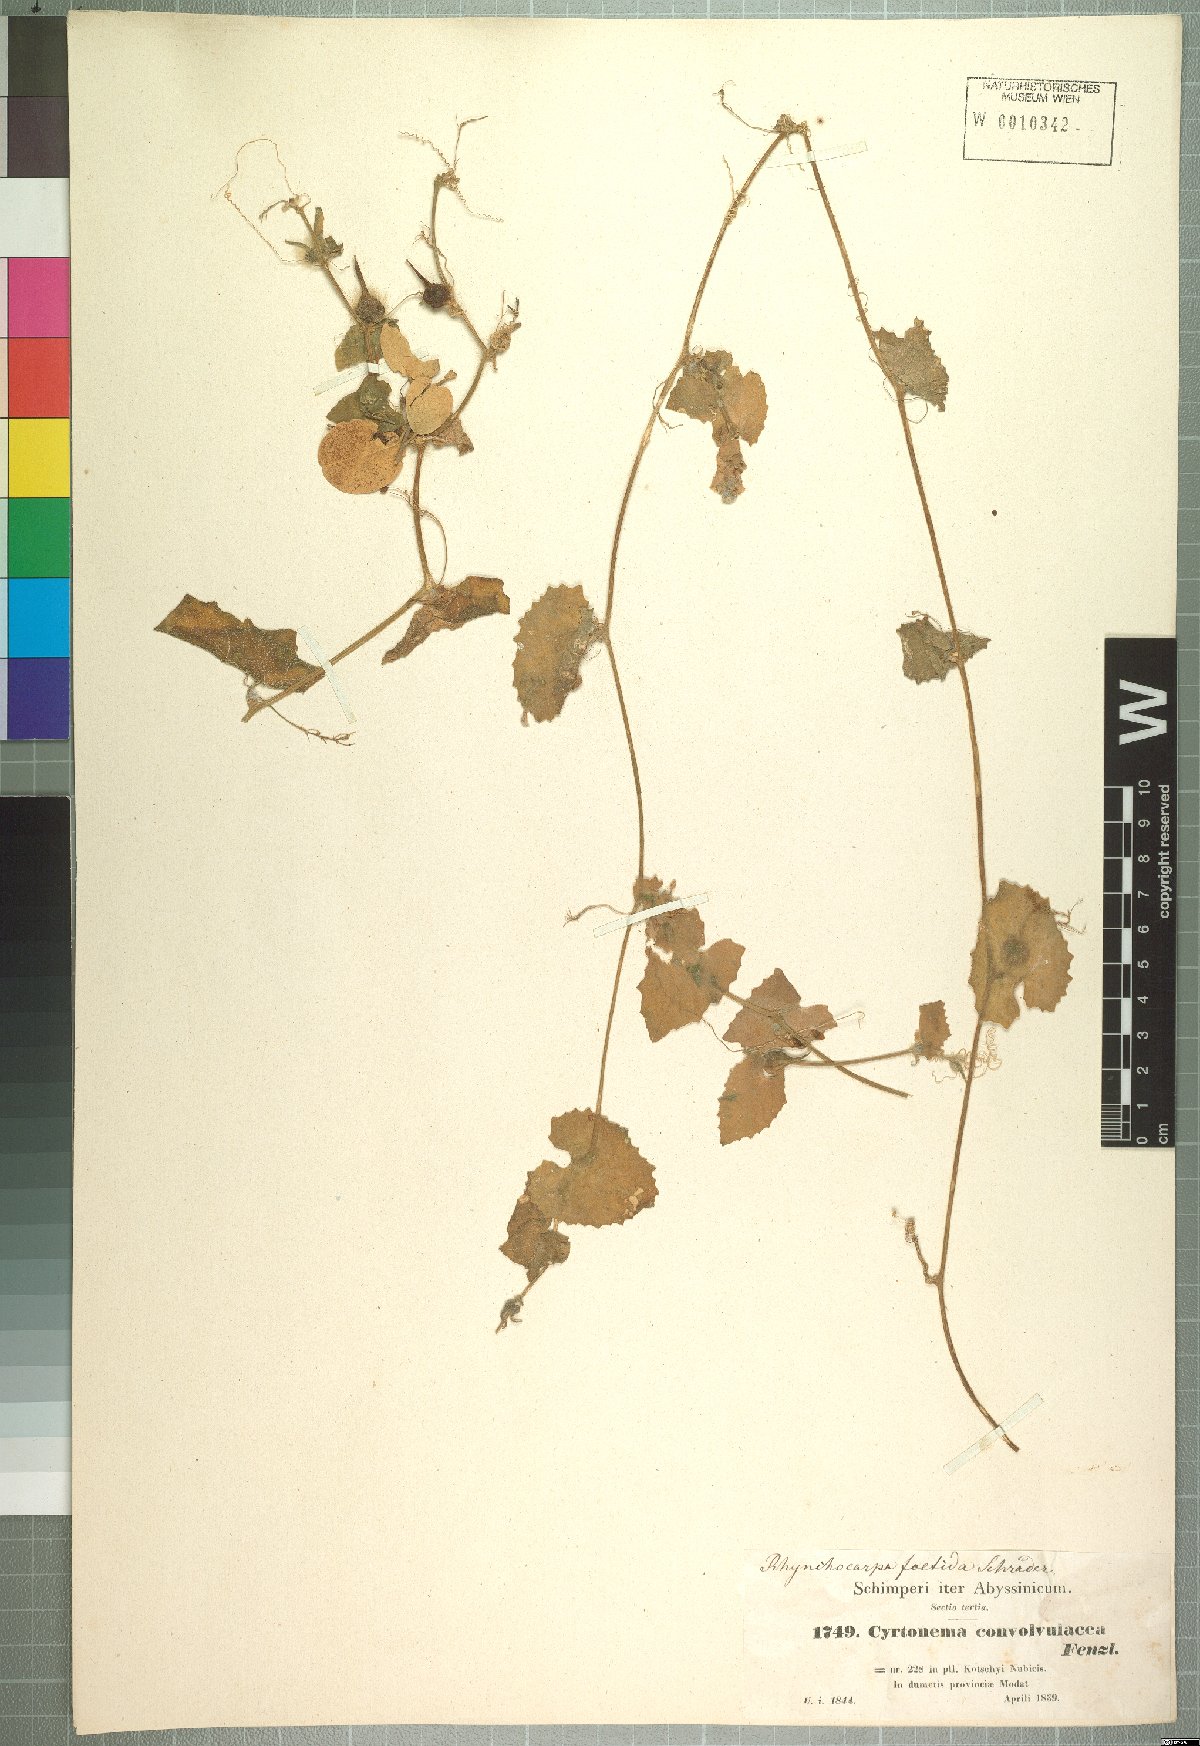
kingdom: Plantae
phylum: Tracheophyta
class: Magnoliopsida
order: Cucurbitales
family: Cucurbitaceae
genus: Kedrostis
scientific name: Kedrostis foetidissima
